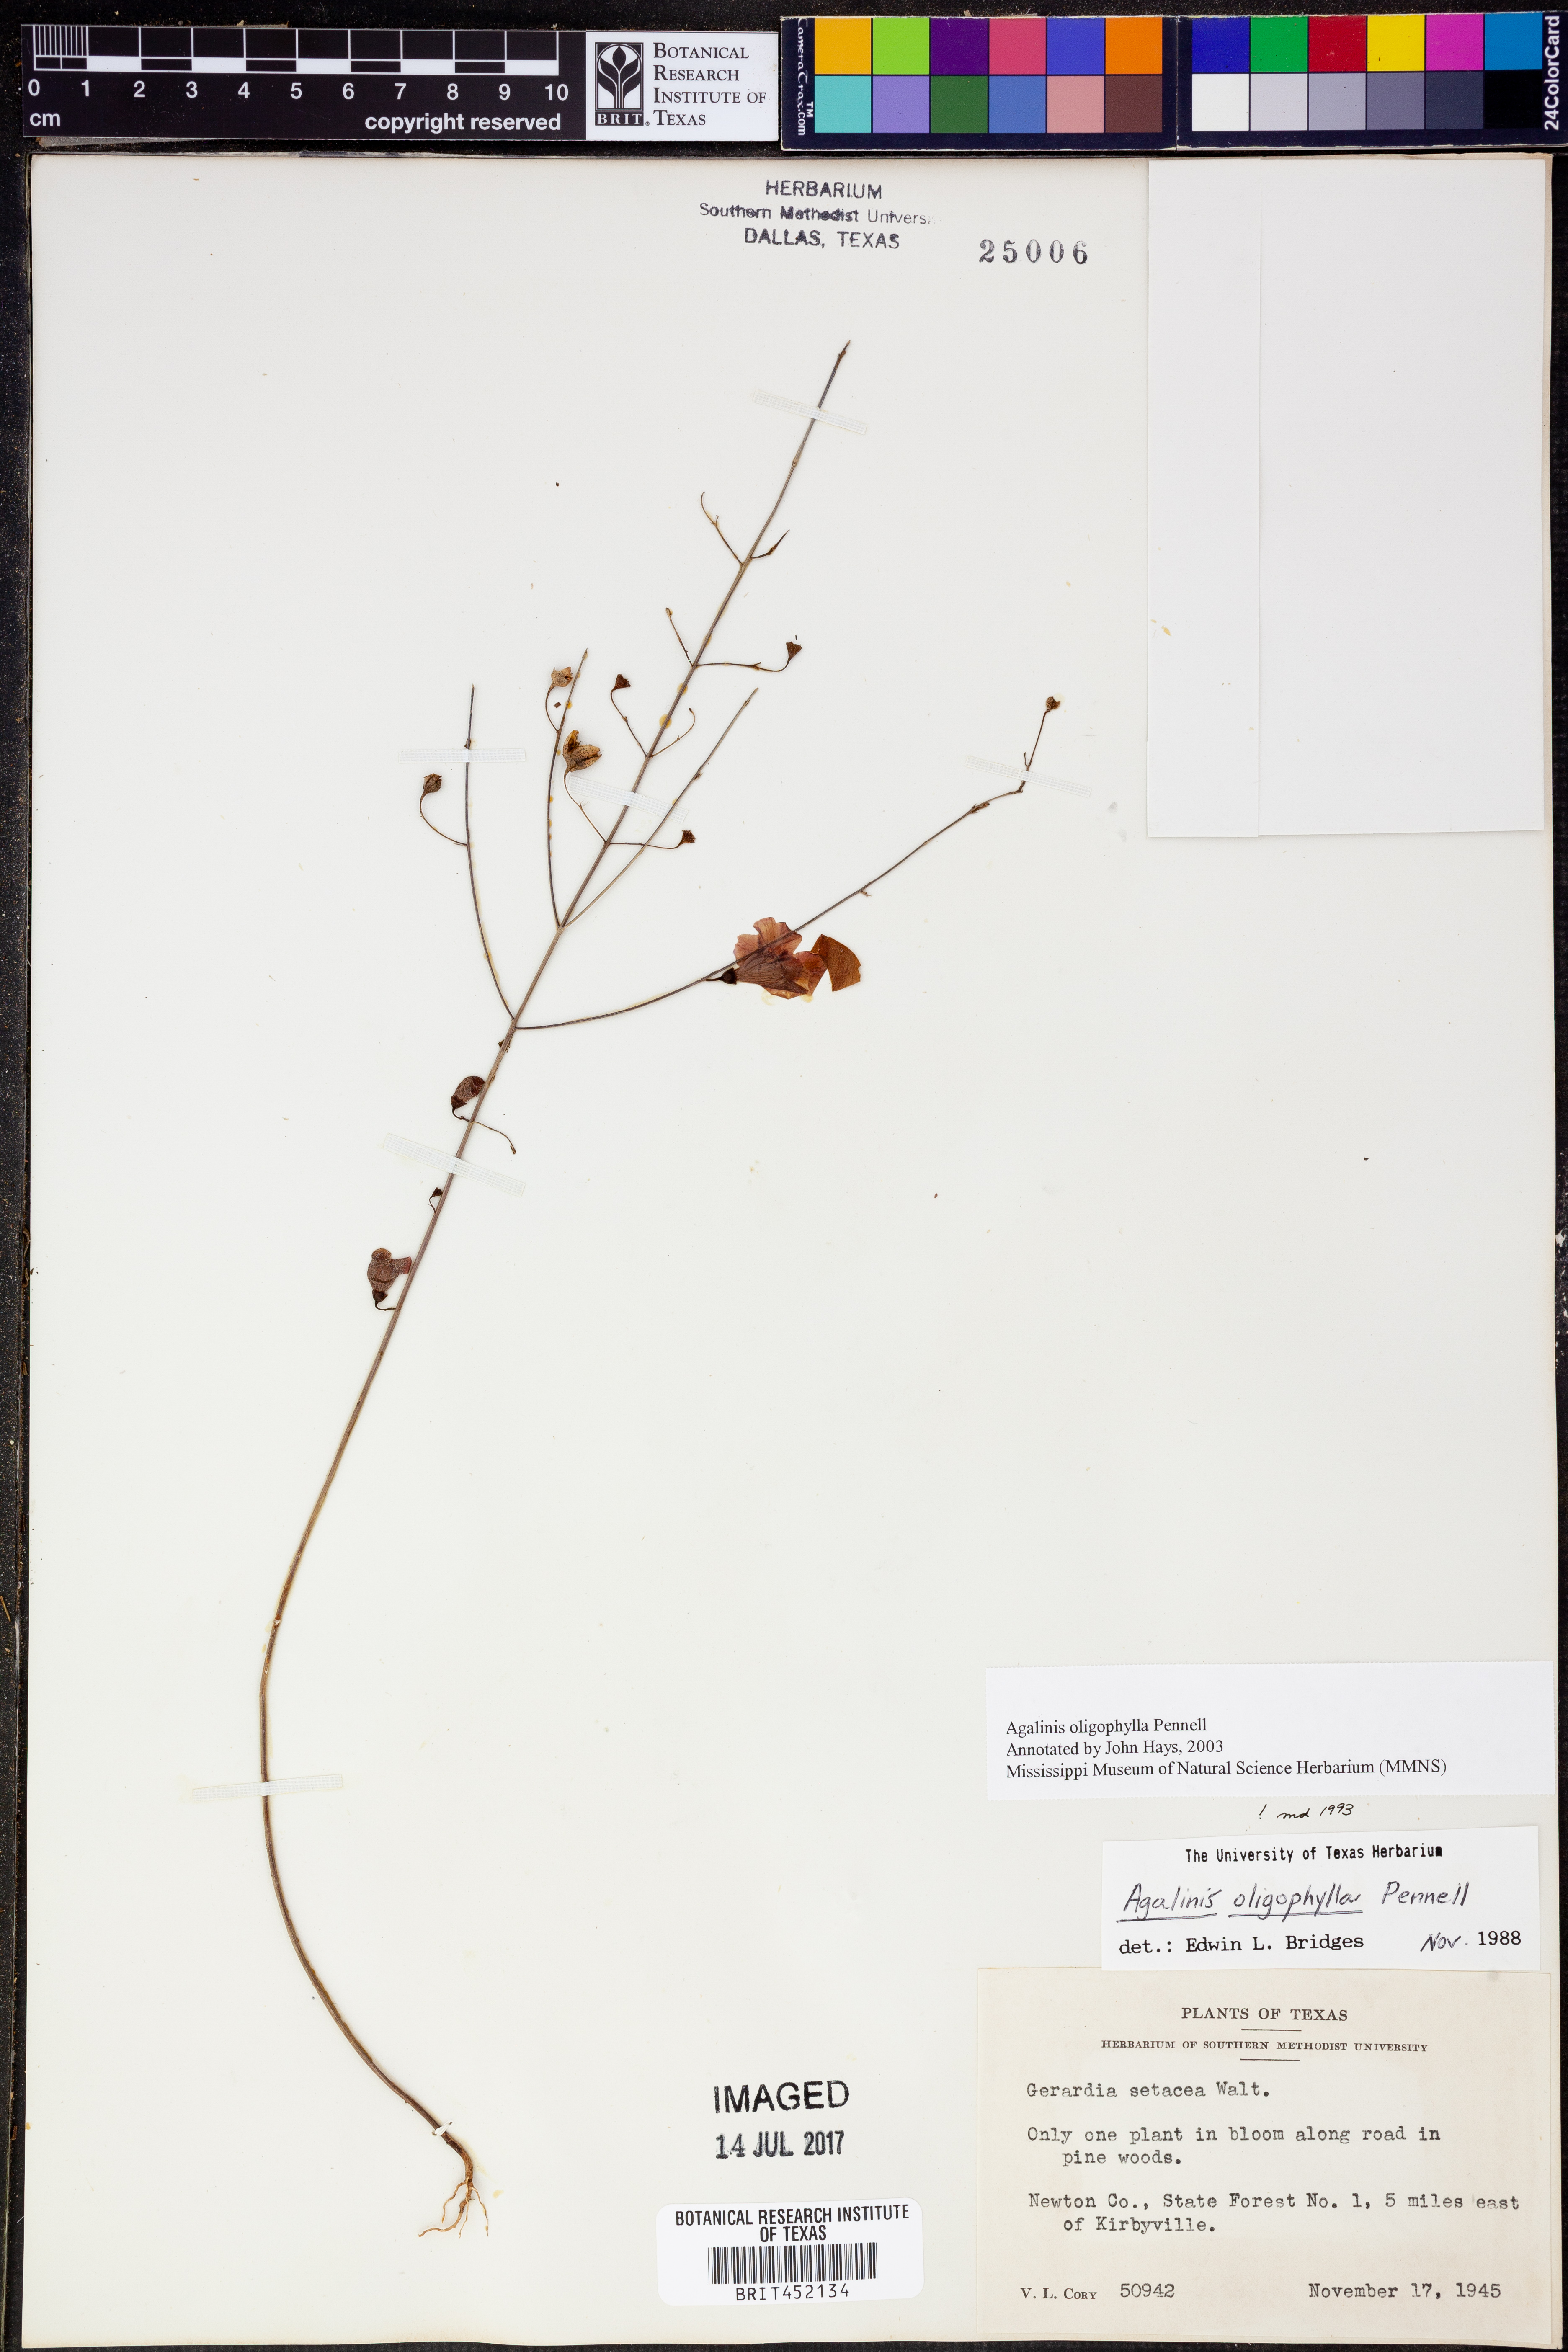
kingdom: Plantae
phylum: Tracheophyta
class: Magnoliopsida
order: Lamiales
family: Orobanchaceae
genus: Agalinis
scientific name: Agalinis oligophylla
